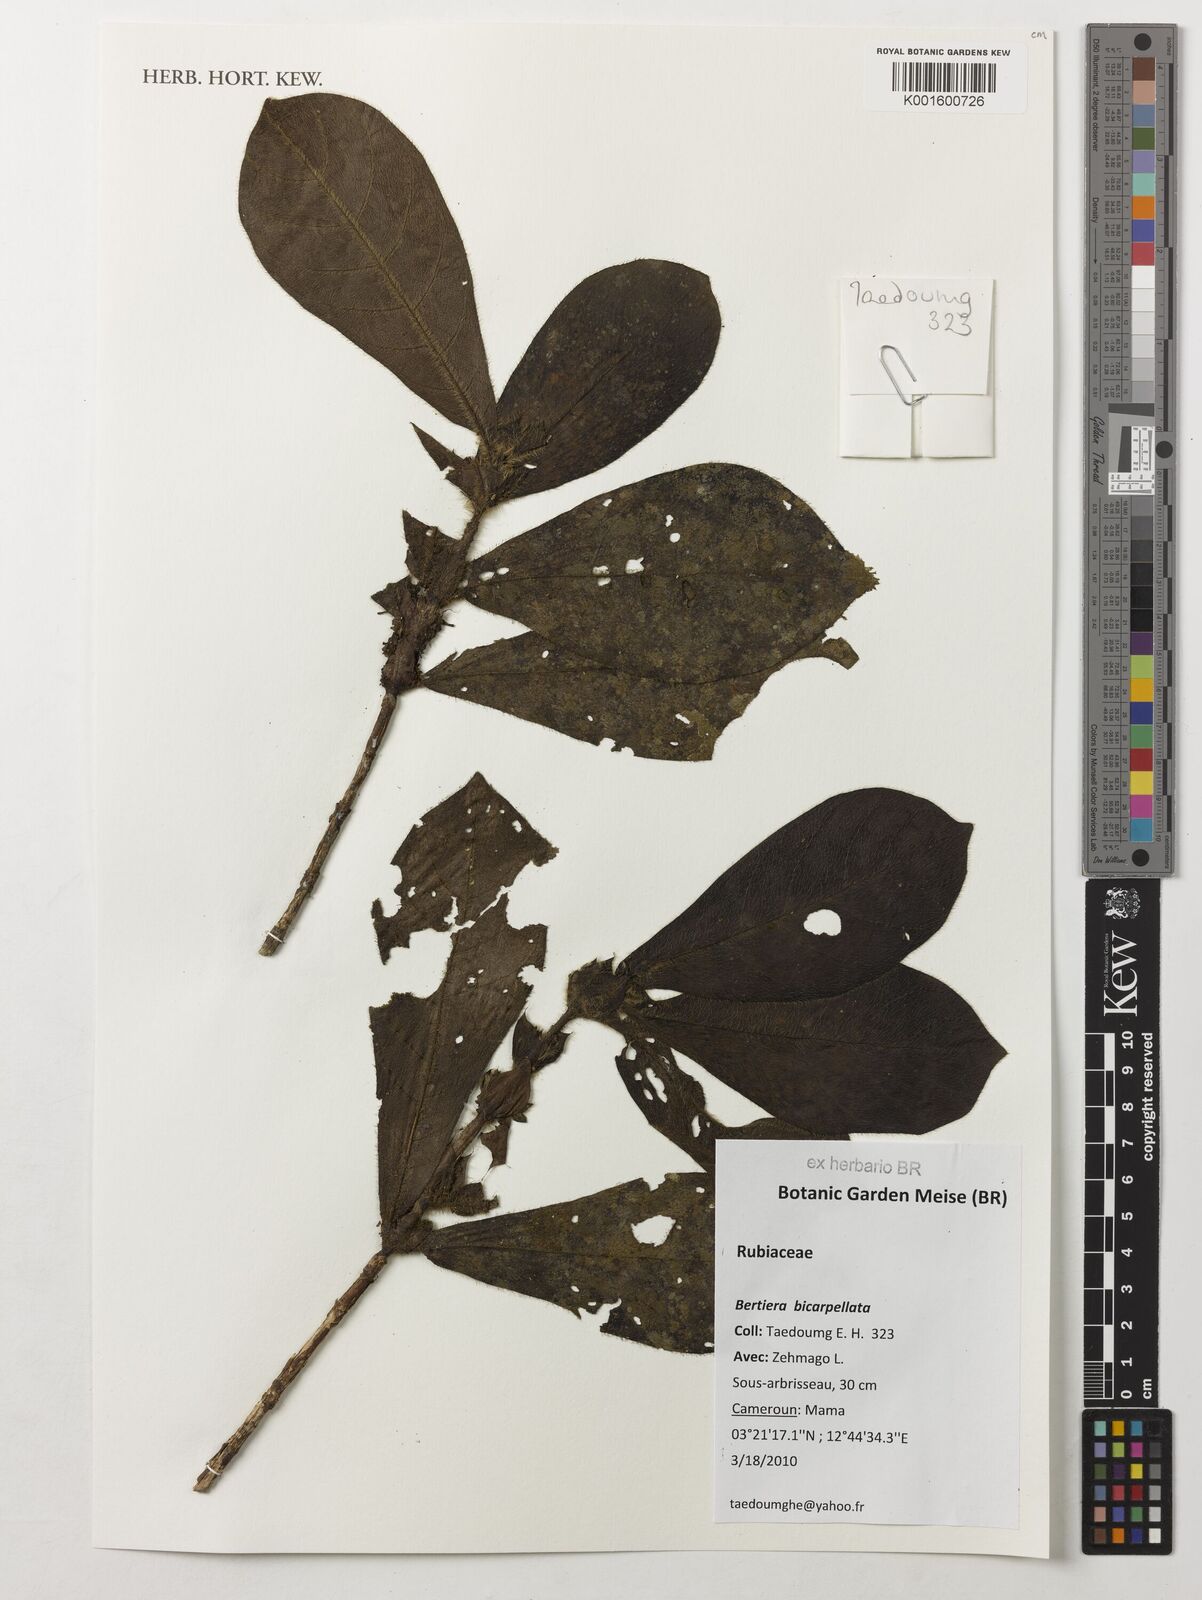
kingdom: Plantae
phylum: Tracheophyta
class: Magnoliopsida
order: Gentianales
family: Rubiaceae
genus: Bertiera
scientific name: Bertiera bicarpellata
